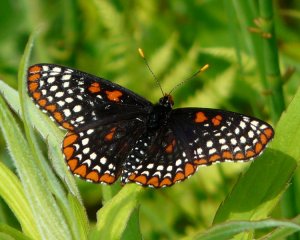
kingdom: Animalia
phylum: Arthropoda
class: Insecta
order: Lepidoptera
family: Nymphalidae
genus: Euphydryas
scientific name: Euphydryas phaeton
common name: Baltimore Checkerspot
